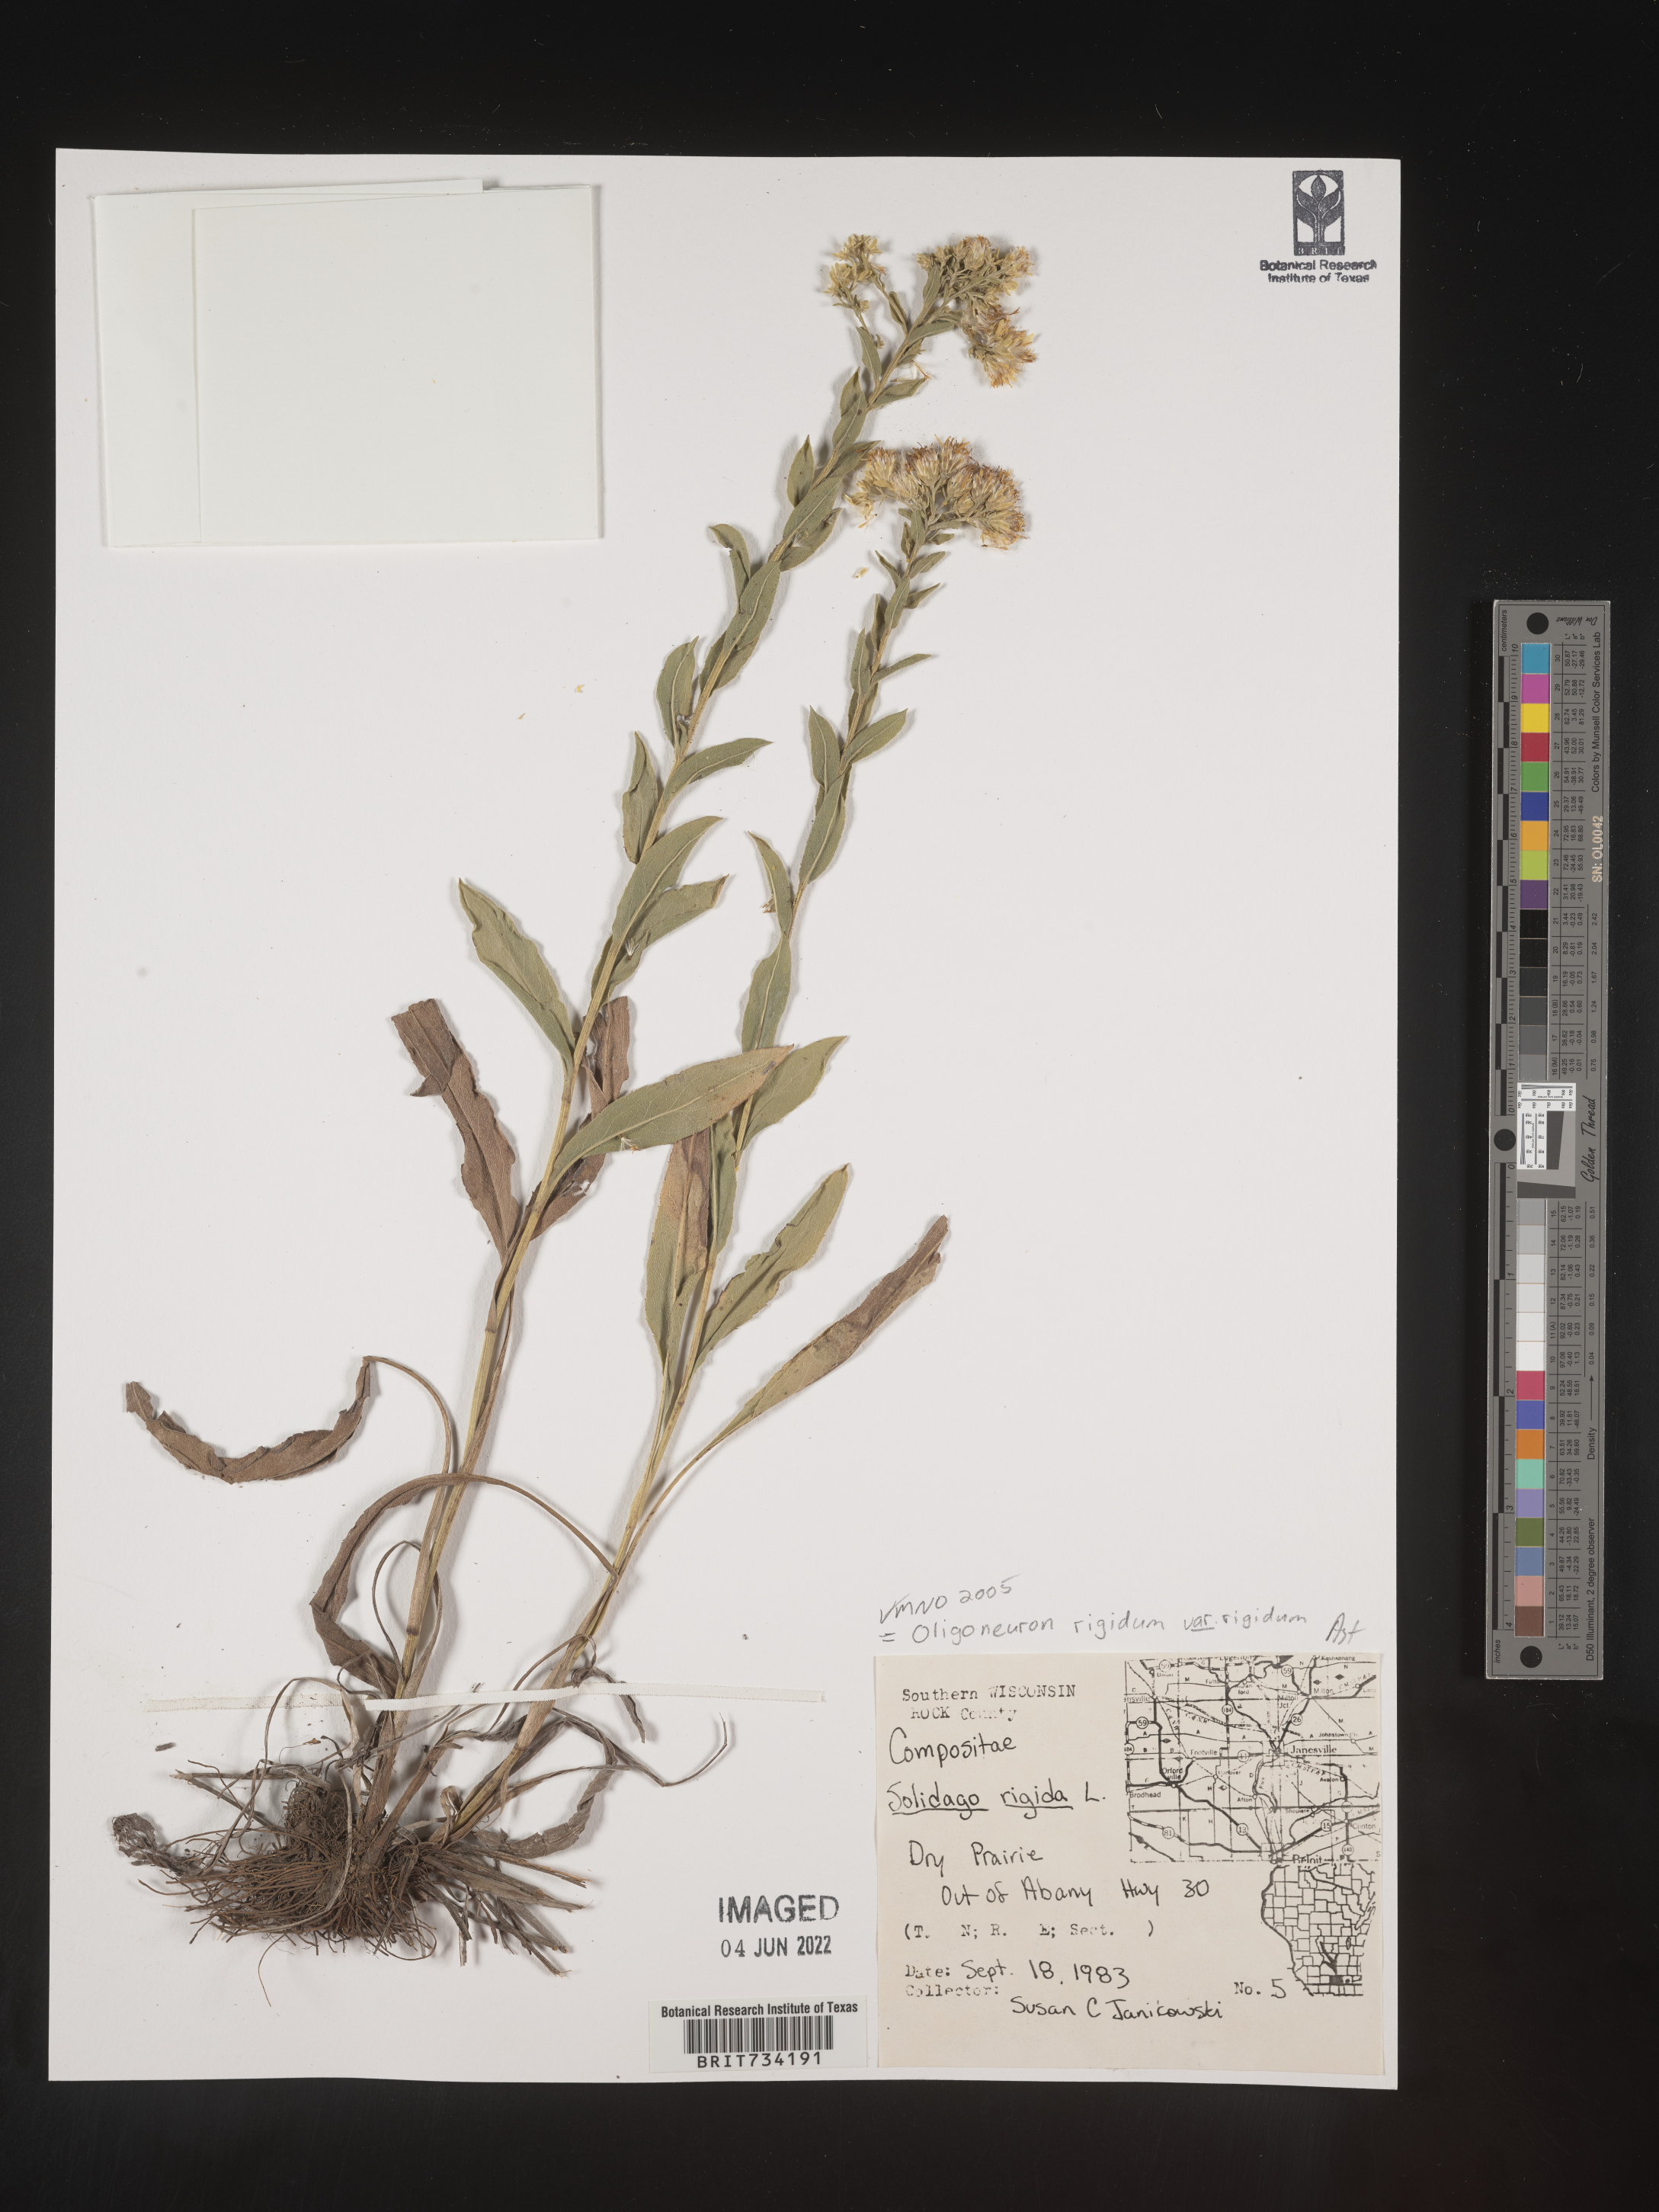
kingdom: Plantae
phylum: Tracheophyta
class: Magnoliopsida
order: Asterales
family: Asteraceae
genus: Solidago
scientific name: Solidago rigida
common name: Rigid goldenrod
